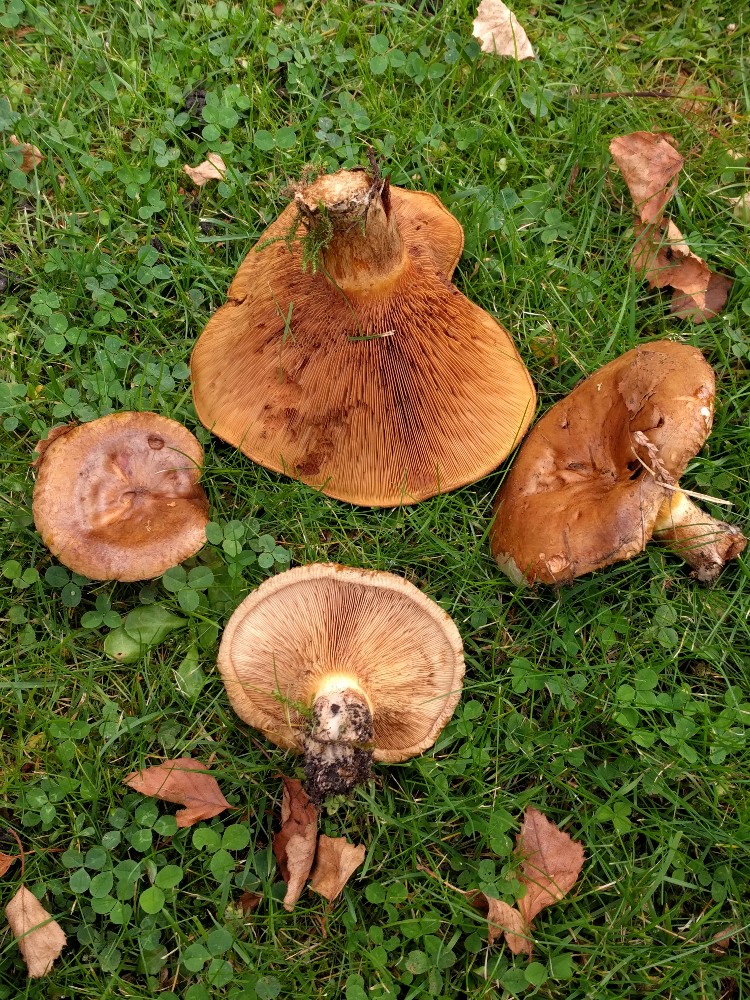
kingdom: Fungi
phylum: Basidiomycota
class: Agaricomycetes
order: Boletales
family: Paxillaceae
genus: Paxillus
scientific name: Paxillus ammoniavirescens
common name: olivensporet netbladhat
